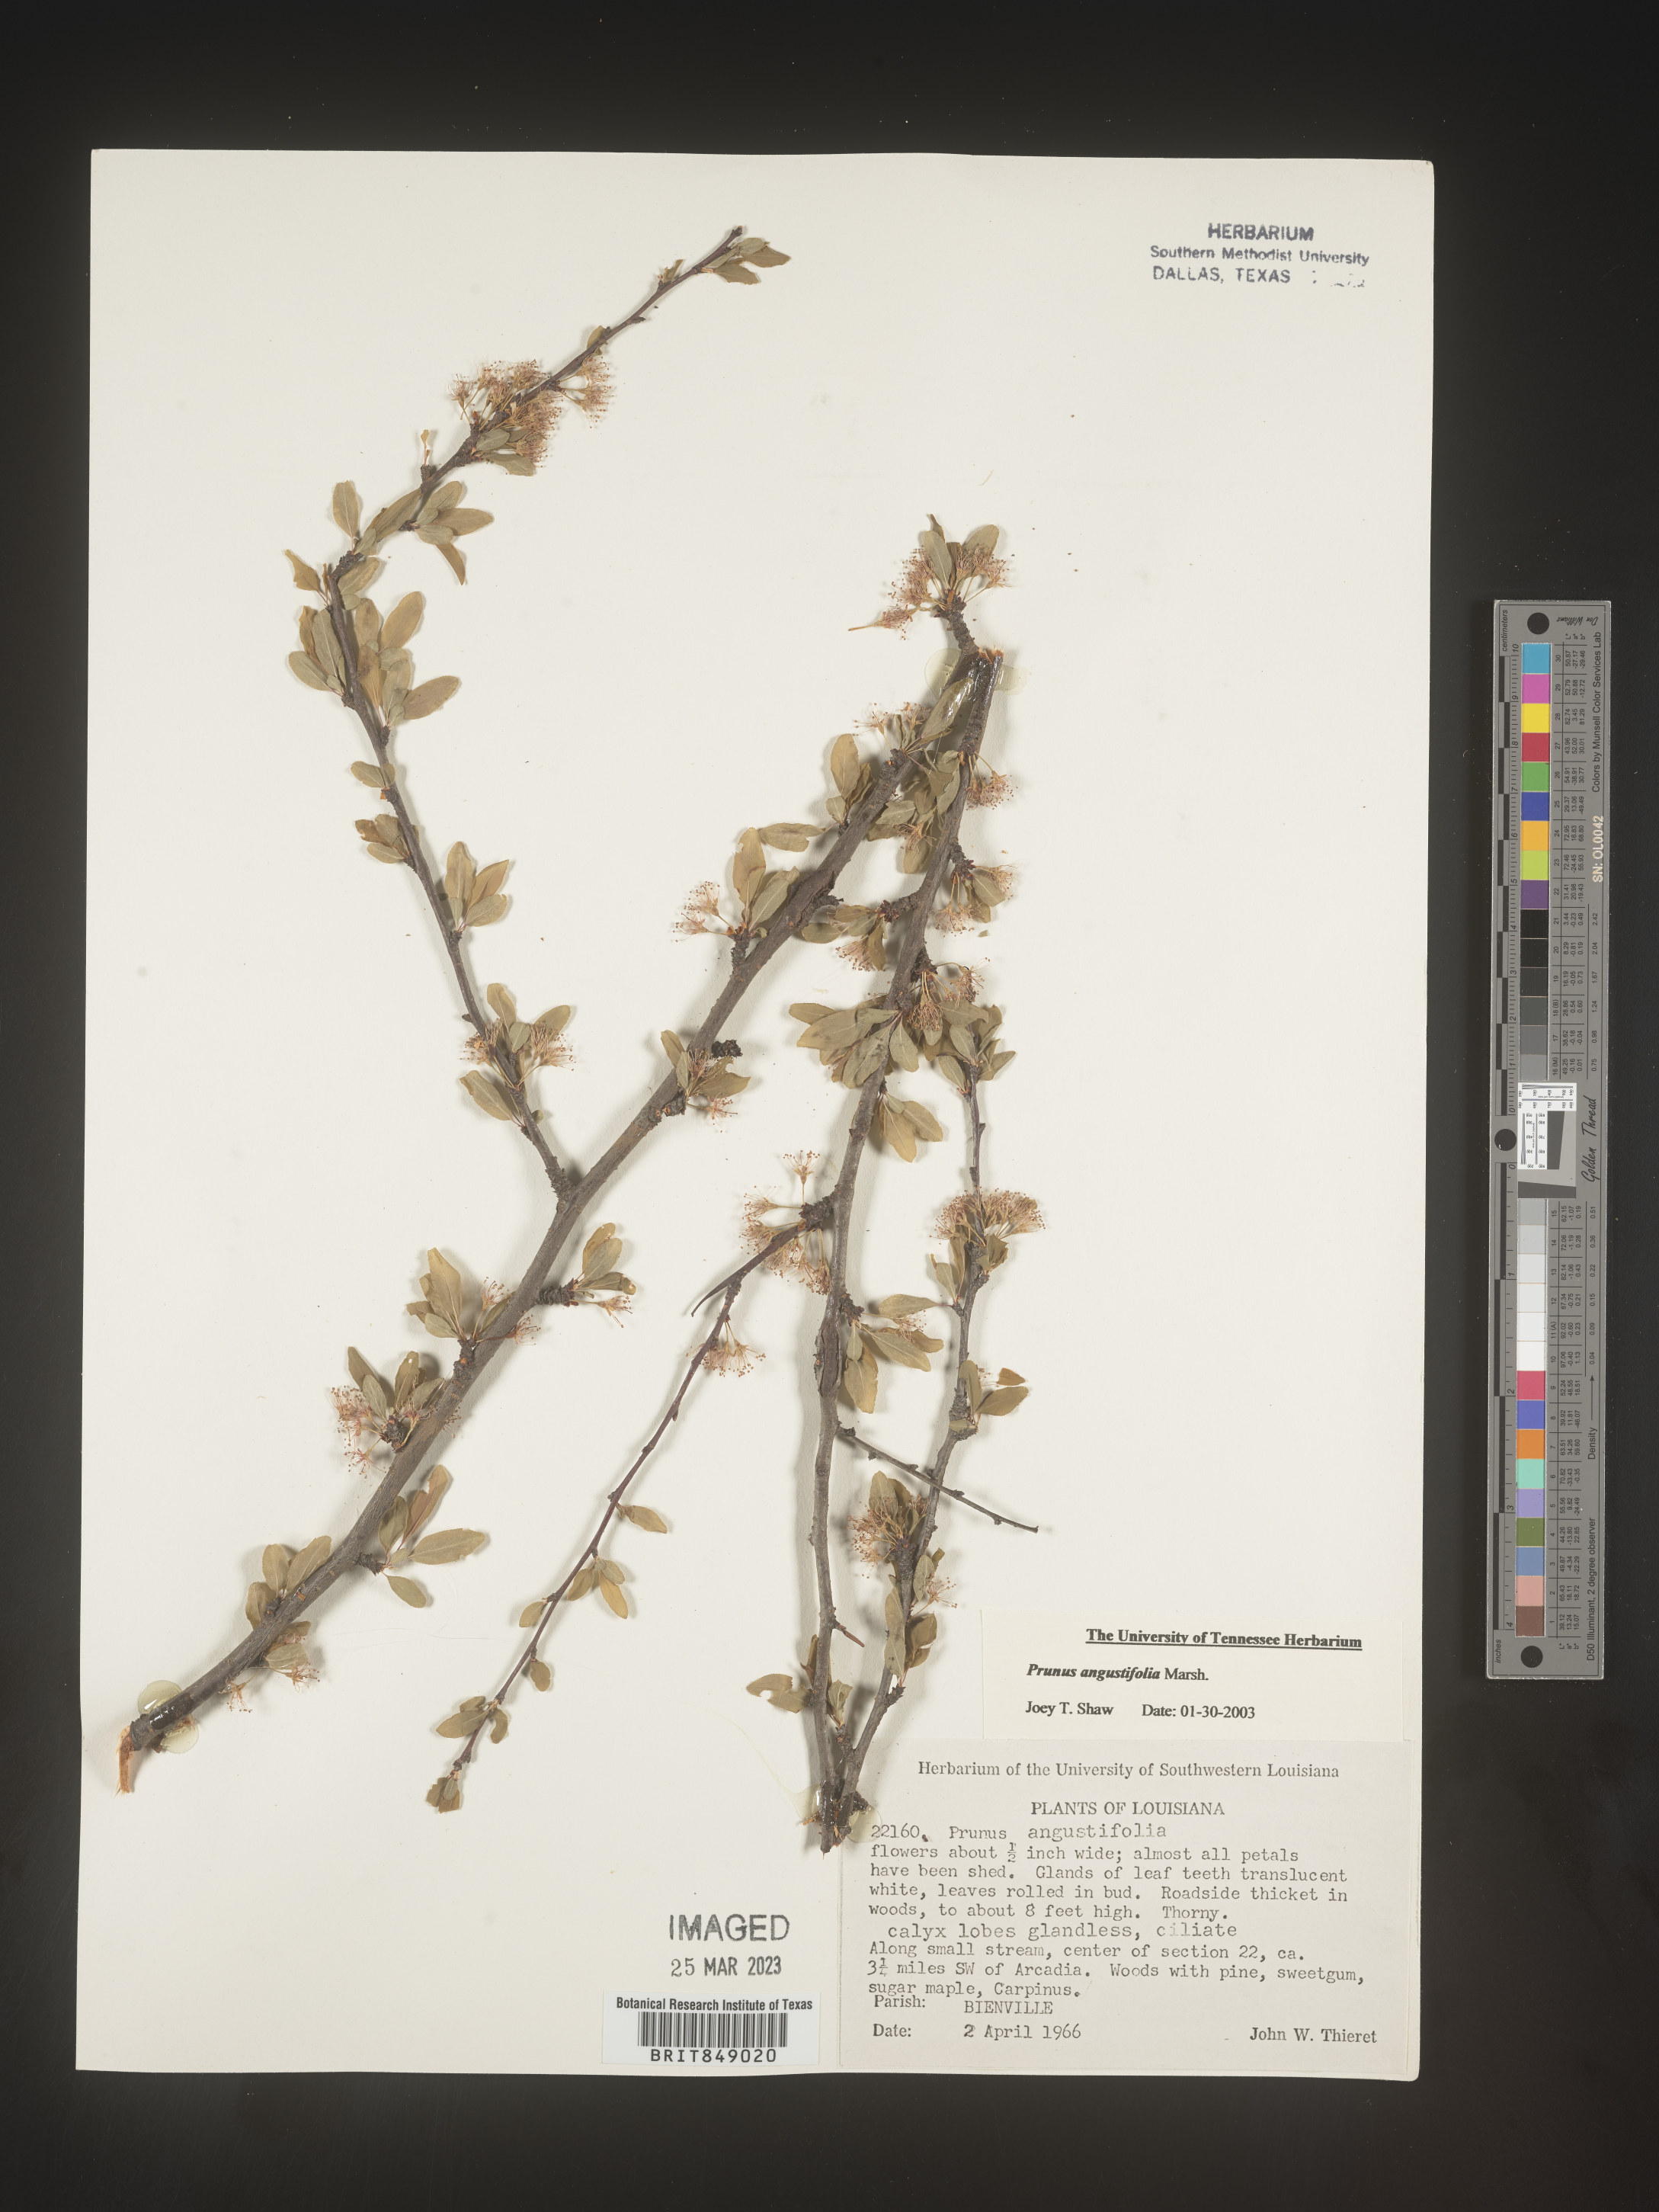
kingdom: Plantae
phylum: Tracheophyta
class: Magnoliopsida
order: Rosales
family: Rosaceae
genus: Prunus
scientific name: Prunus angustifolia
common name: Cherokee plum
